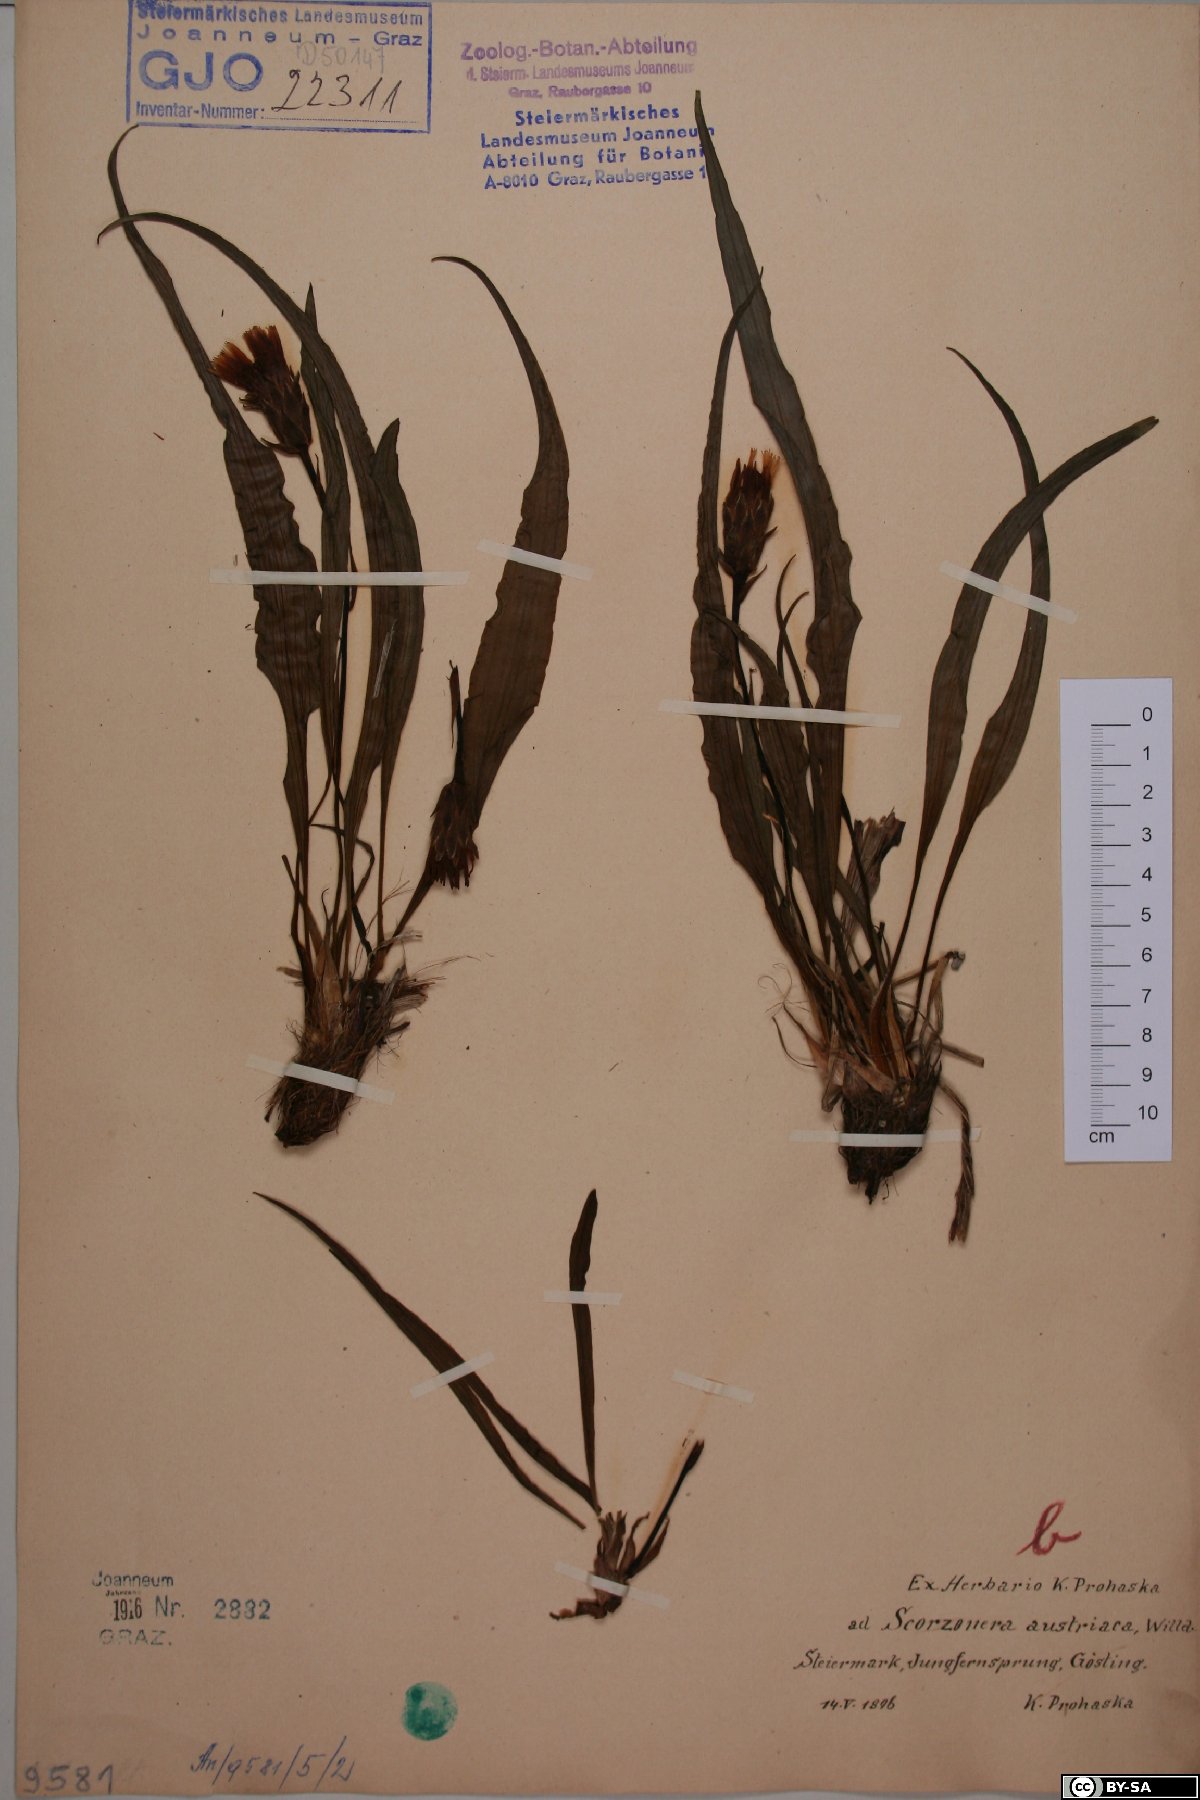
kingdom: Plantae
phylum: Tracheophyta
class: Magnoliopsida
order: Asterales
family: Asteraceae
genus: Takhtajaniantha
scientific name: Takhtajaniantha austriaca
